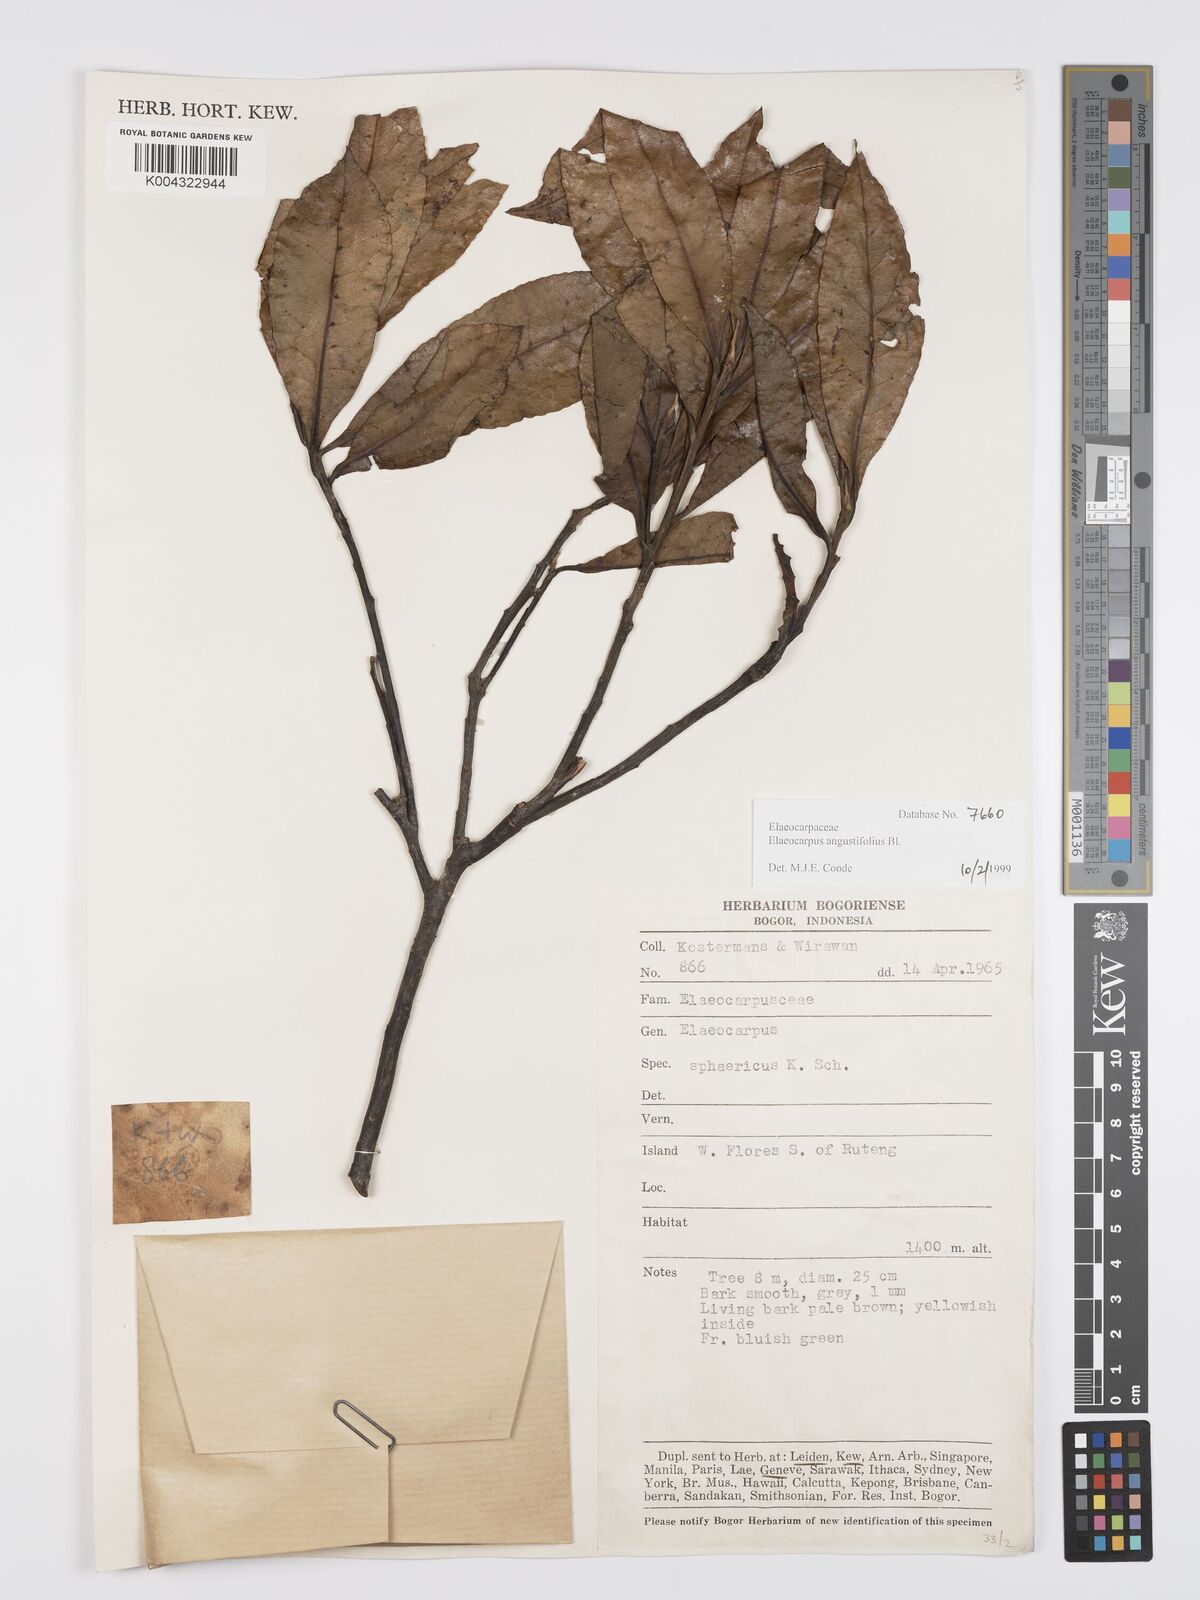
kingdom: Plantae
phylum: Tracheophyta
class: Magnoliopsida
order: Oxalidales
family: Elaeocarpaceae
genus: Elaeocarpus
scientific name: Elaeocarpus
